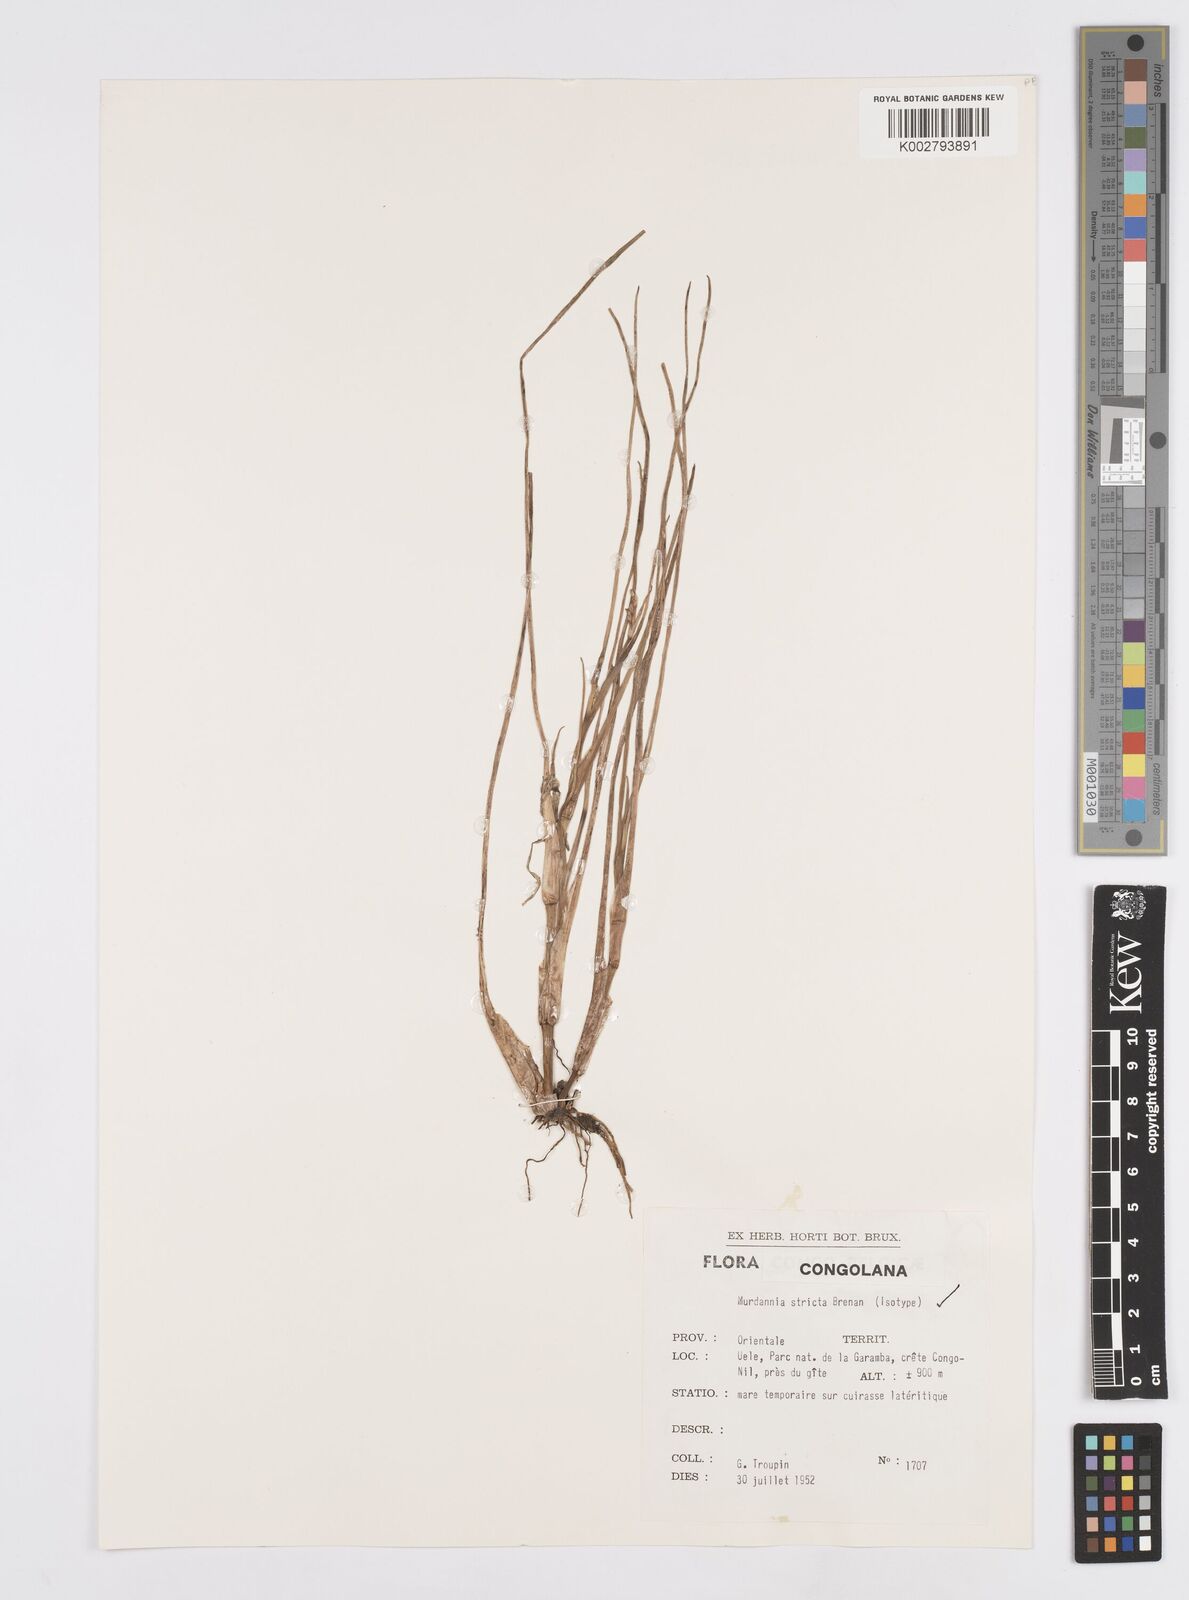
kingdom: Plantae
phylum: Tracheophyta
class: Liliopsida
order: Commelinales
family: Commelinaceae
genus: Murdannia
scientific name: Murdannia stricta
